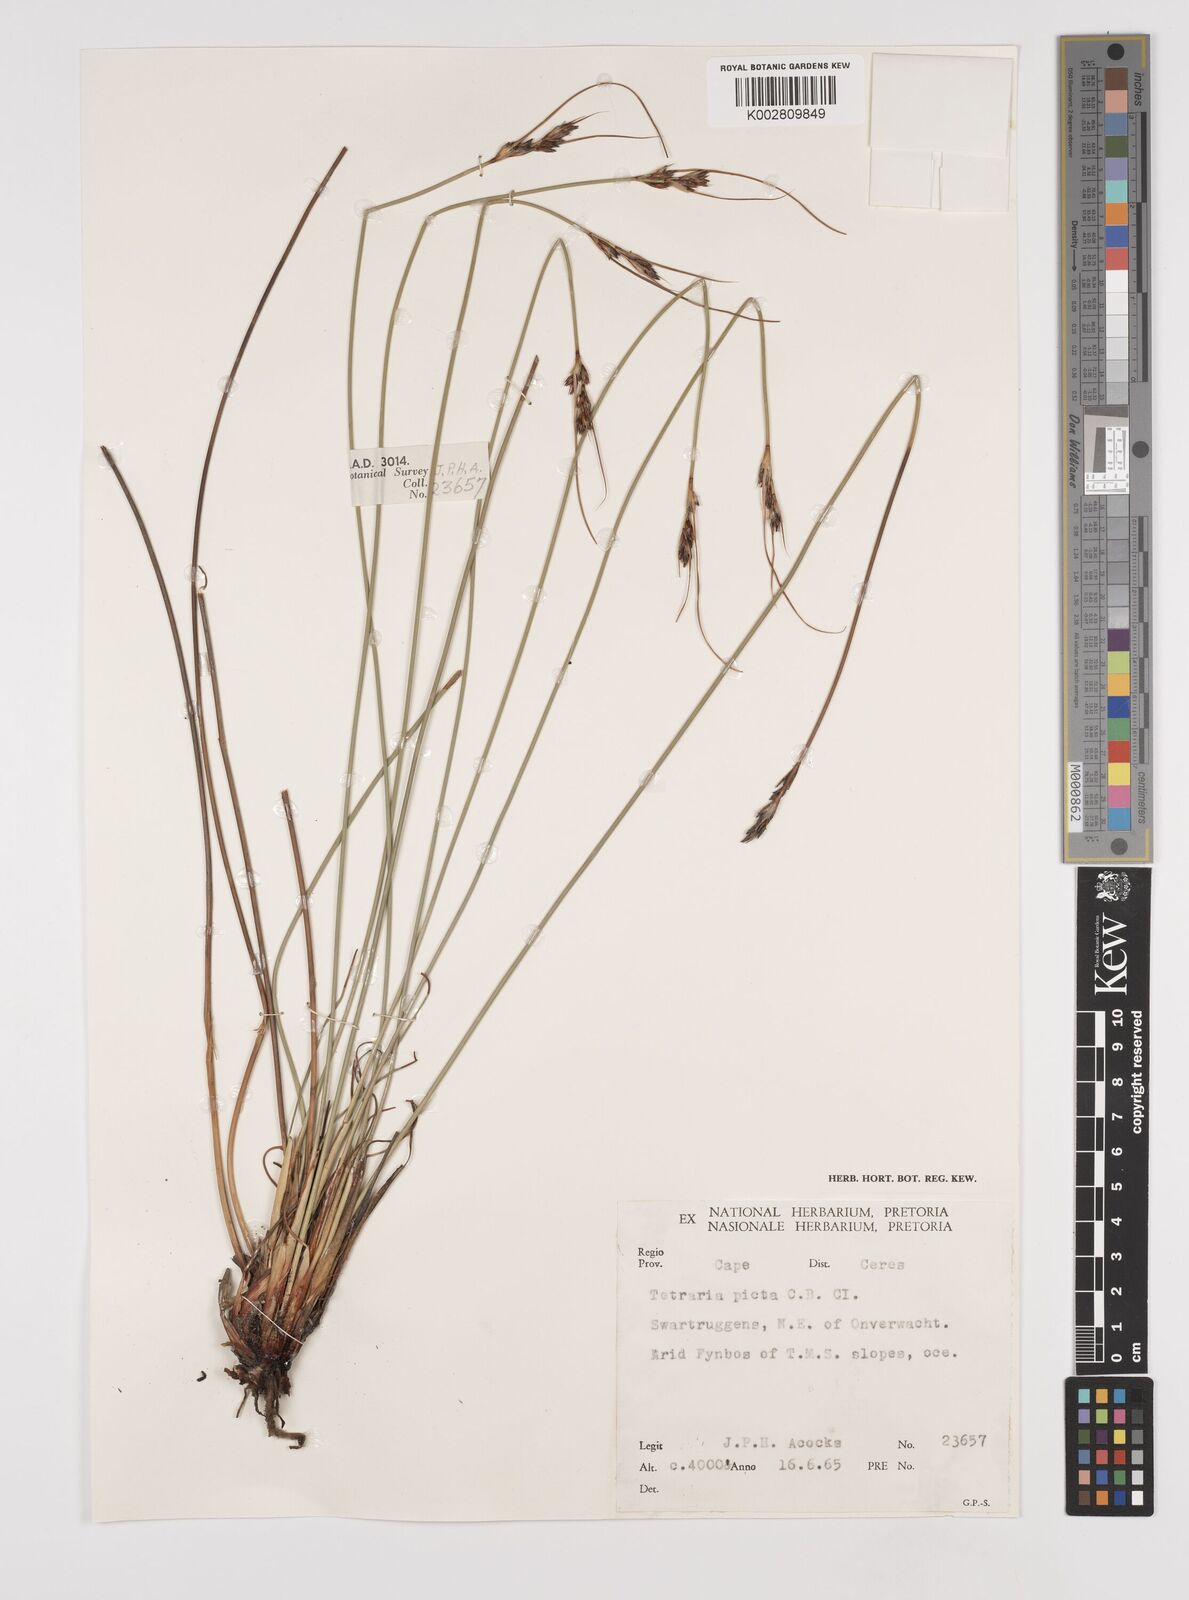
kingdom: Plantae
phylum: Tracheophyta
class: Liliopsida
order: Poales
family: Cyperaceae
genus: Schoenus
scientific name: Schoenus pseudoloreus
